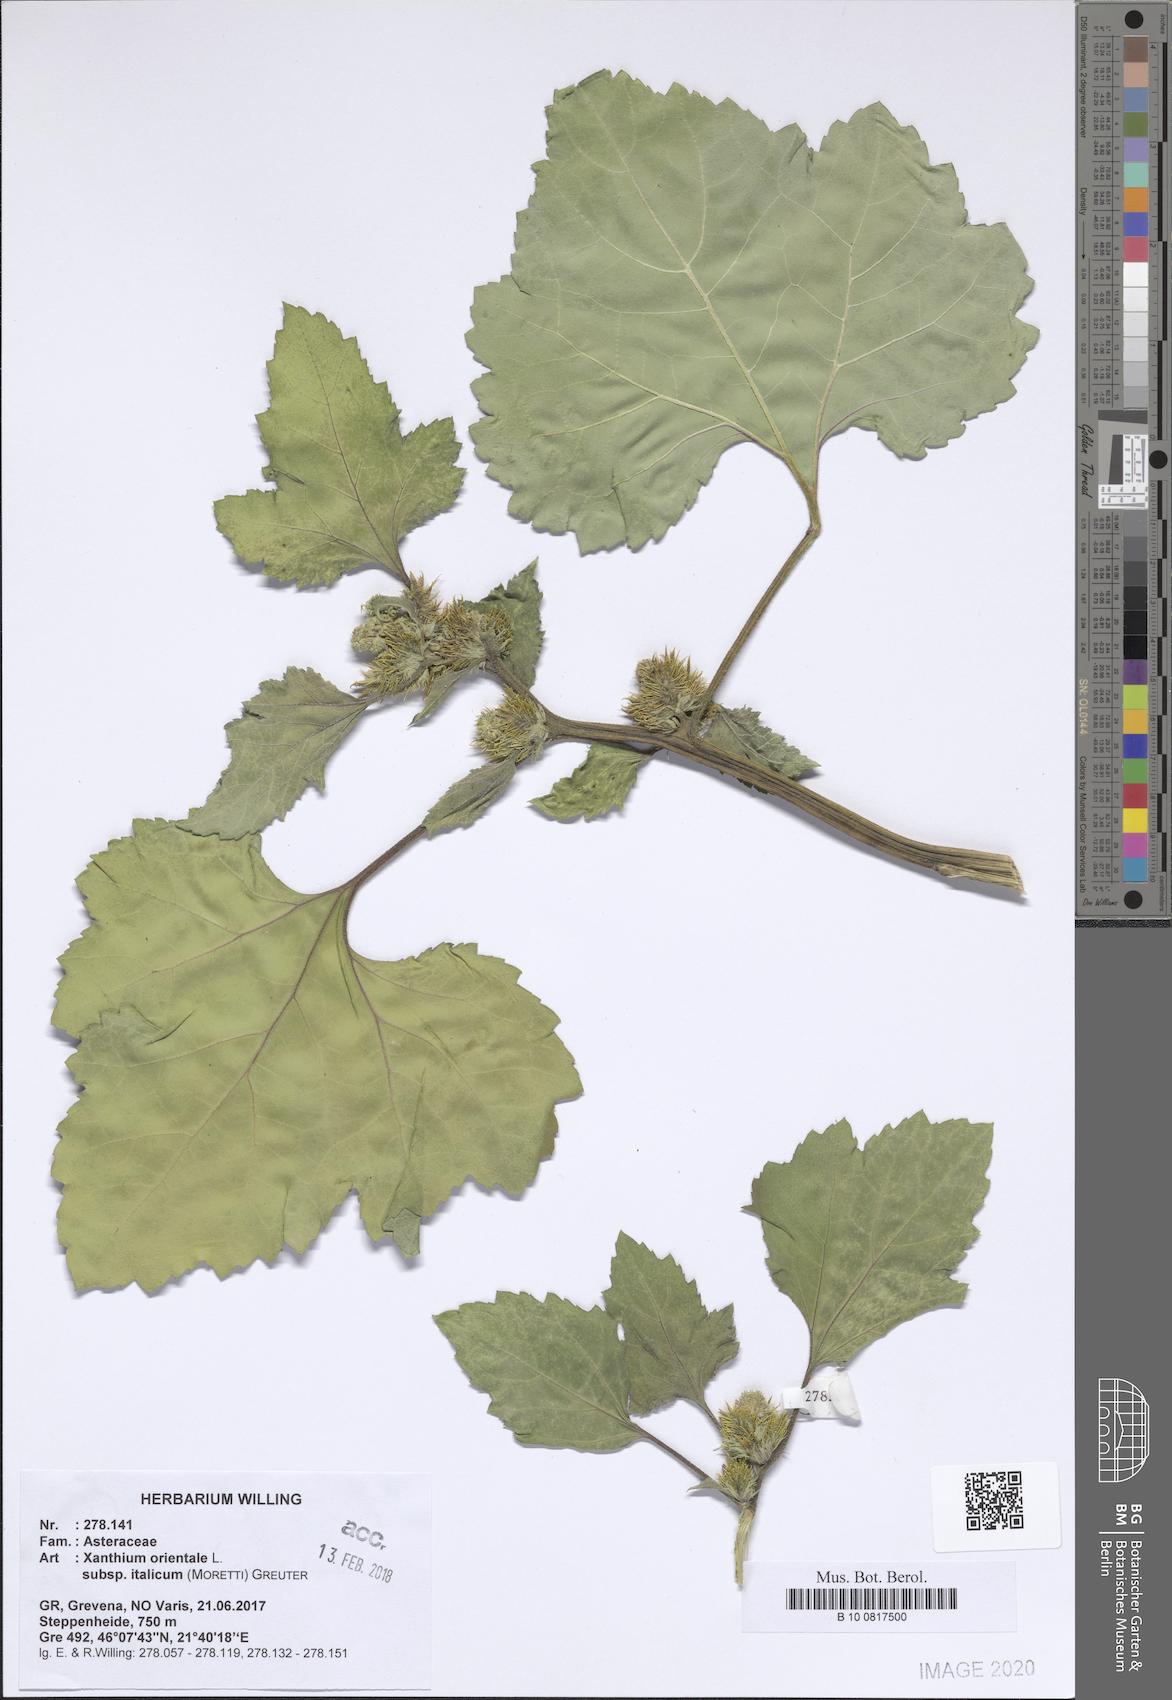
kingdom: Plantae
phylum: Tracheophyta
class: Magnoliopsida
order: Asterales
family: Asteraceae
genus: Xanthium
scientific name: Xanthium orientale
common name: Californian burr
